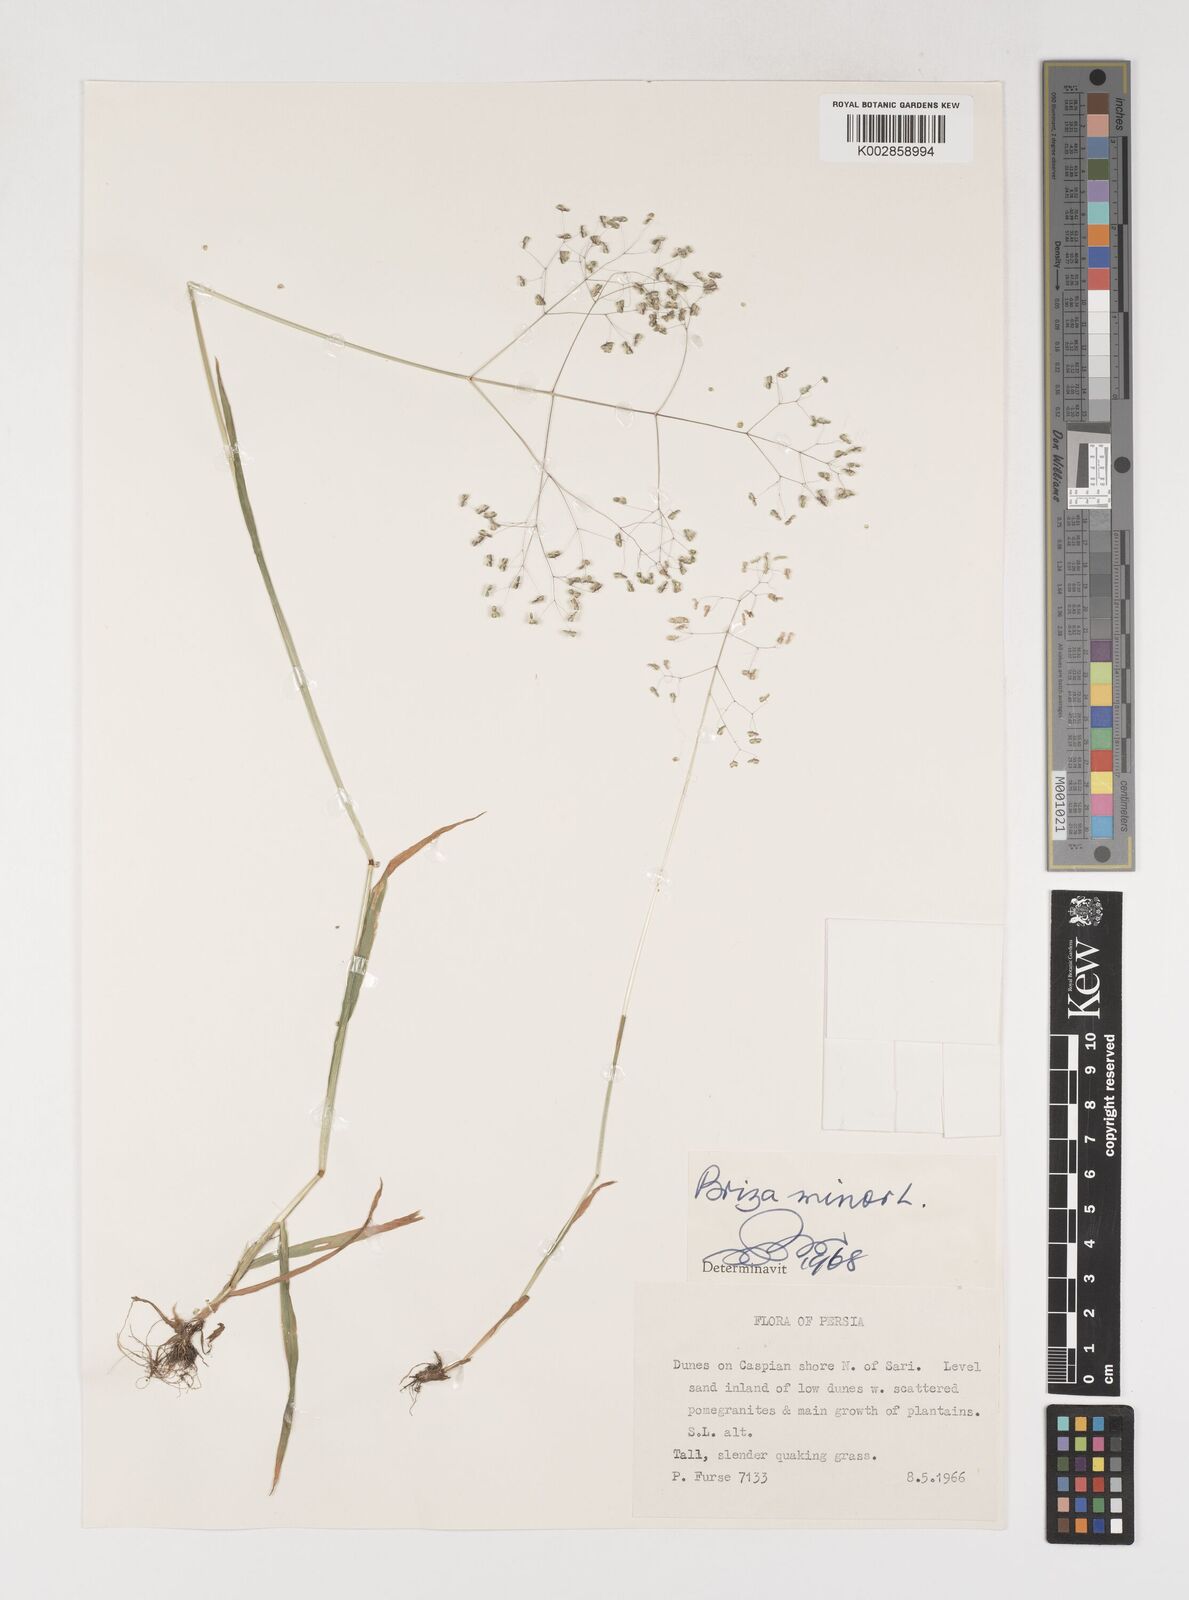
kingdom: Plantae
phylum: Tracheophyta
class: Liliopsida
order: Poales
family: Poaceae
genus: Briza
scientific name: Briza minor
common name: Lesser quaking-grass
